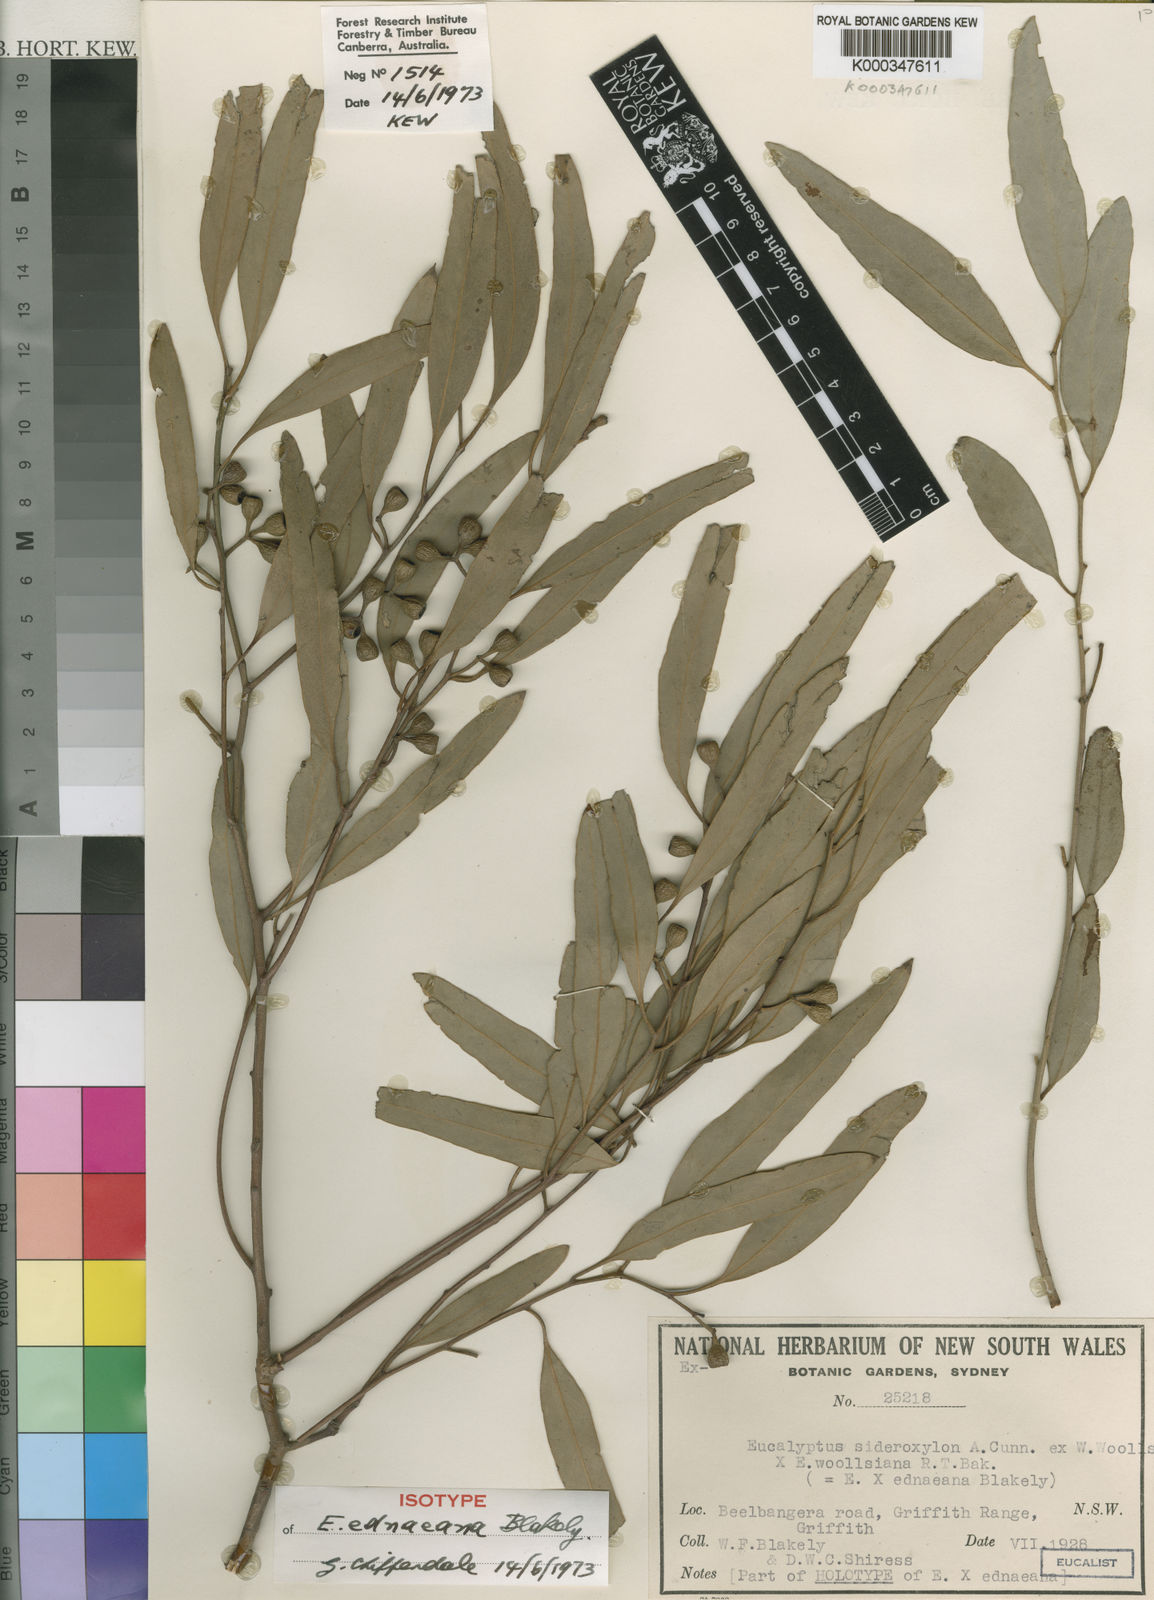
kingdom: Plantae
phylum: Tracheophyta
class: Magnoliopsida
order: Myrtales
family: Myrtaceae
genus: Eucalyptus
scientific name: Eucalyptus ednaeana
